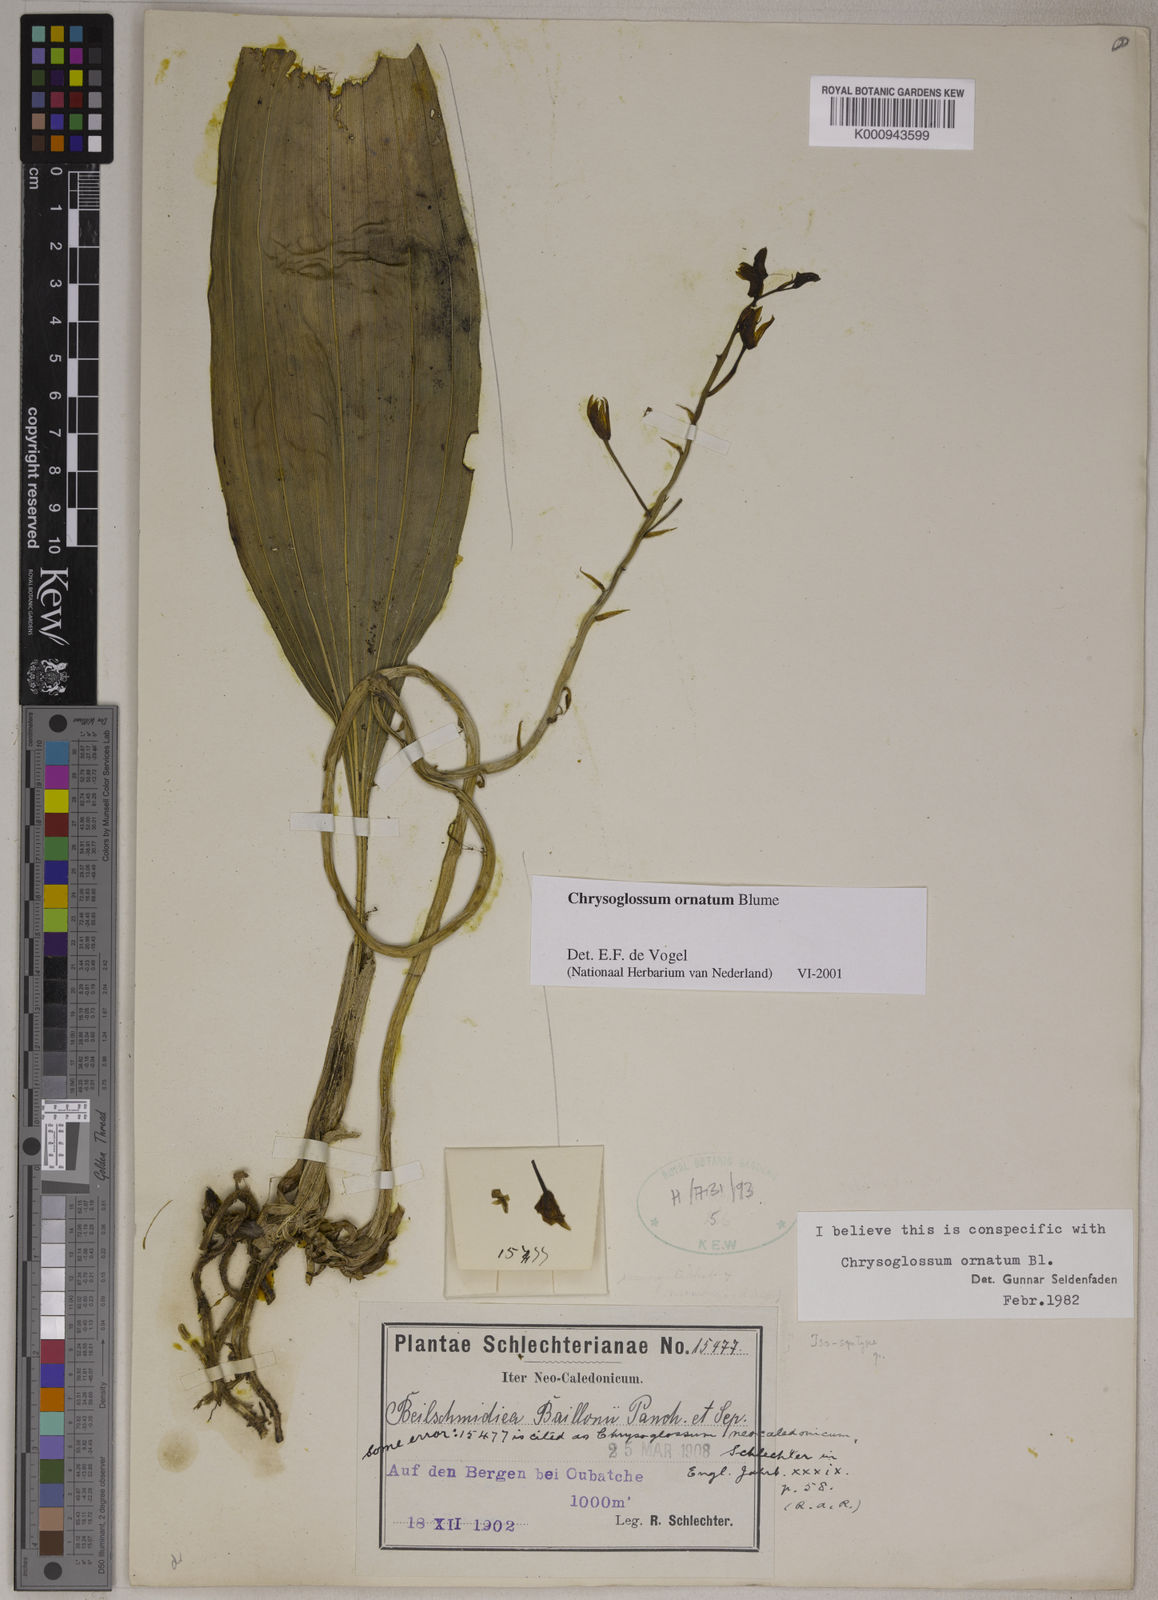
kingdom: Plantae
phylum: Tracheophyta
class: Liliopsida
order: Asparagales
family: Orchidaceae
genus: Chrysoglossum
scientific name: Chrysoglossum ornatum
